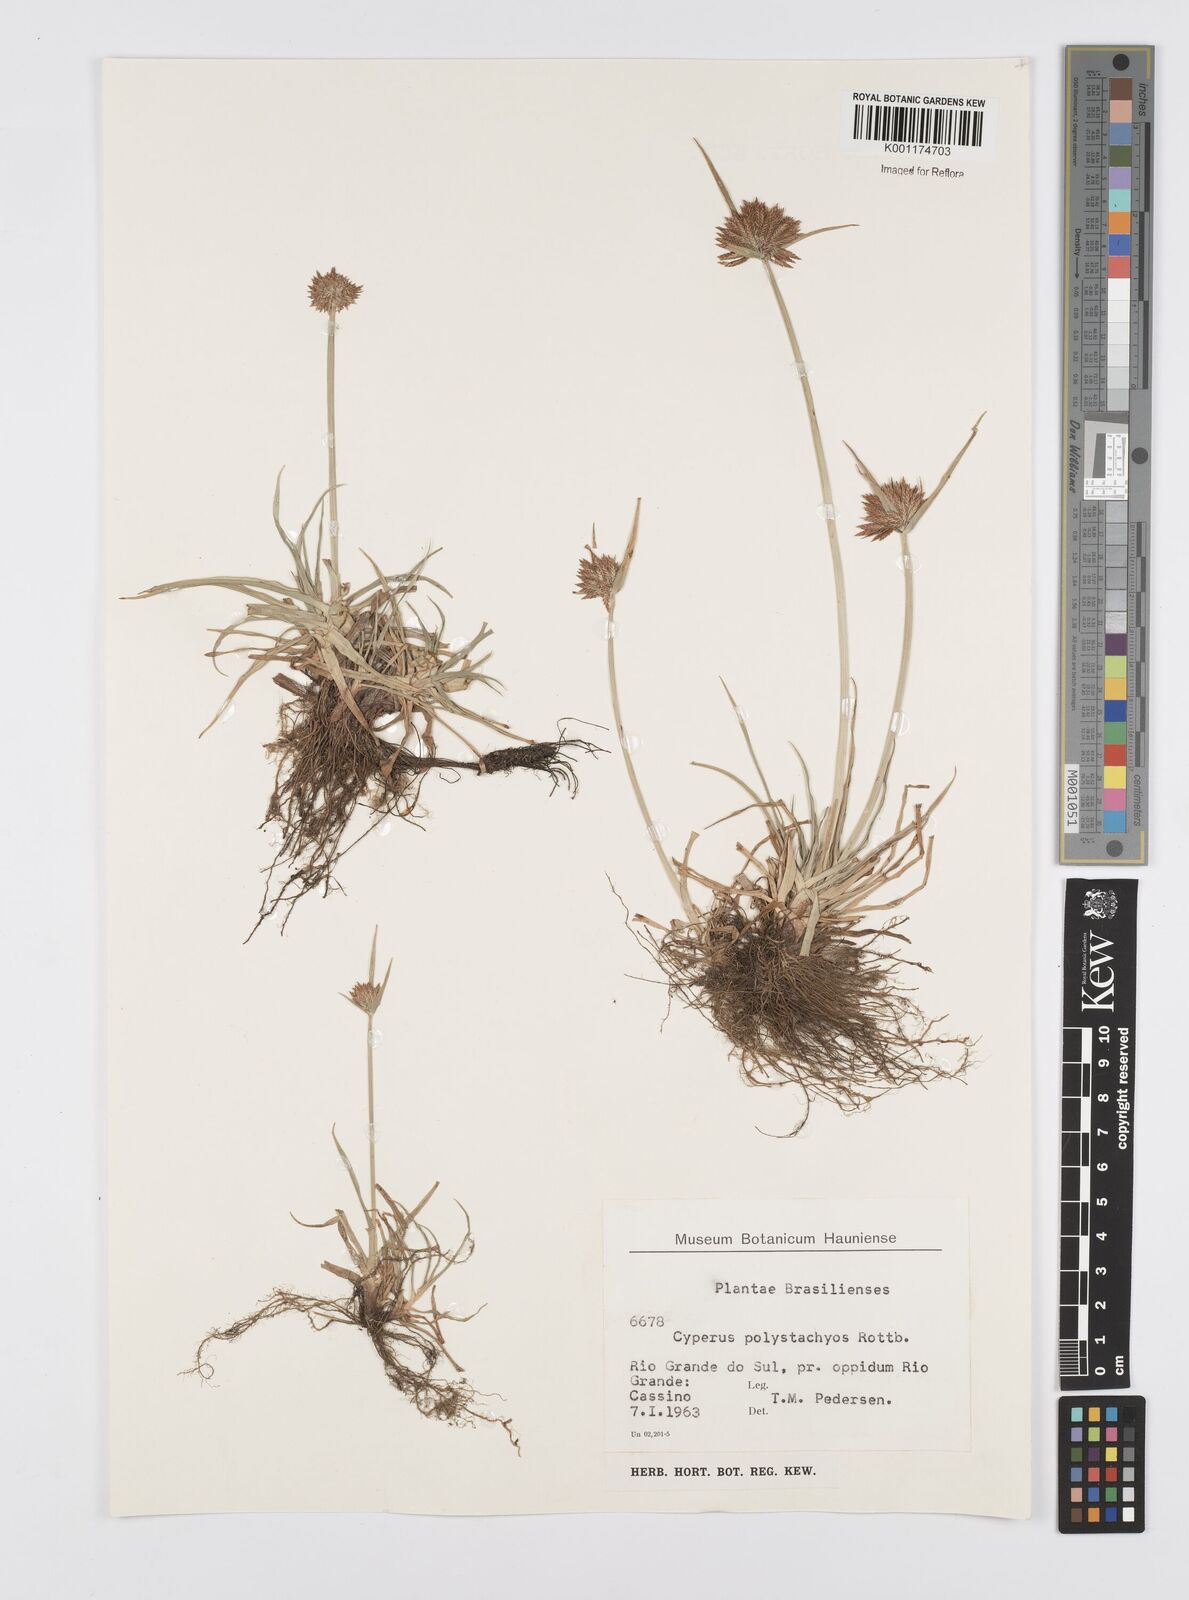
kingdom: Plantae
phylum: Tracheophyta
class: Liliopsida
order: Poales
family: Cyperaceae
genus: Cyperus
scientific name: Cyperus polystachyos
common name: Bunchy flat sedge
